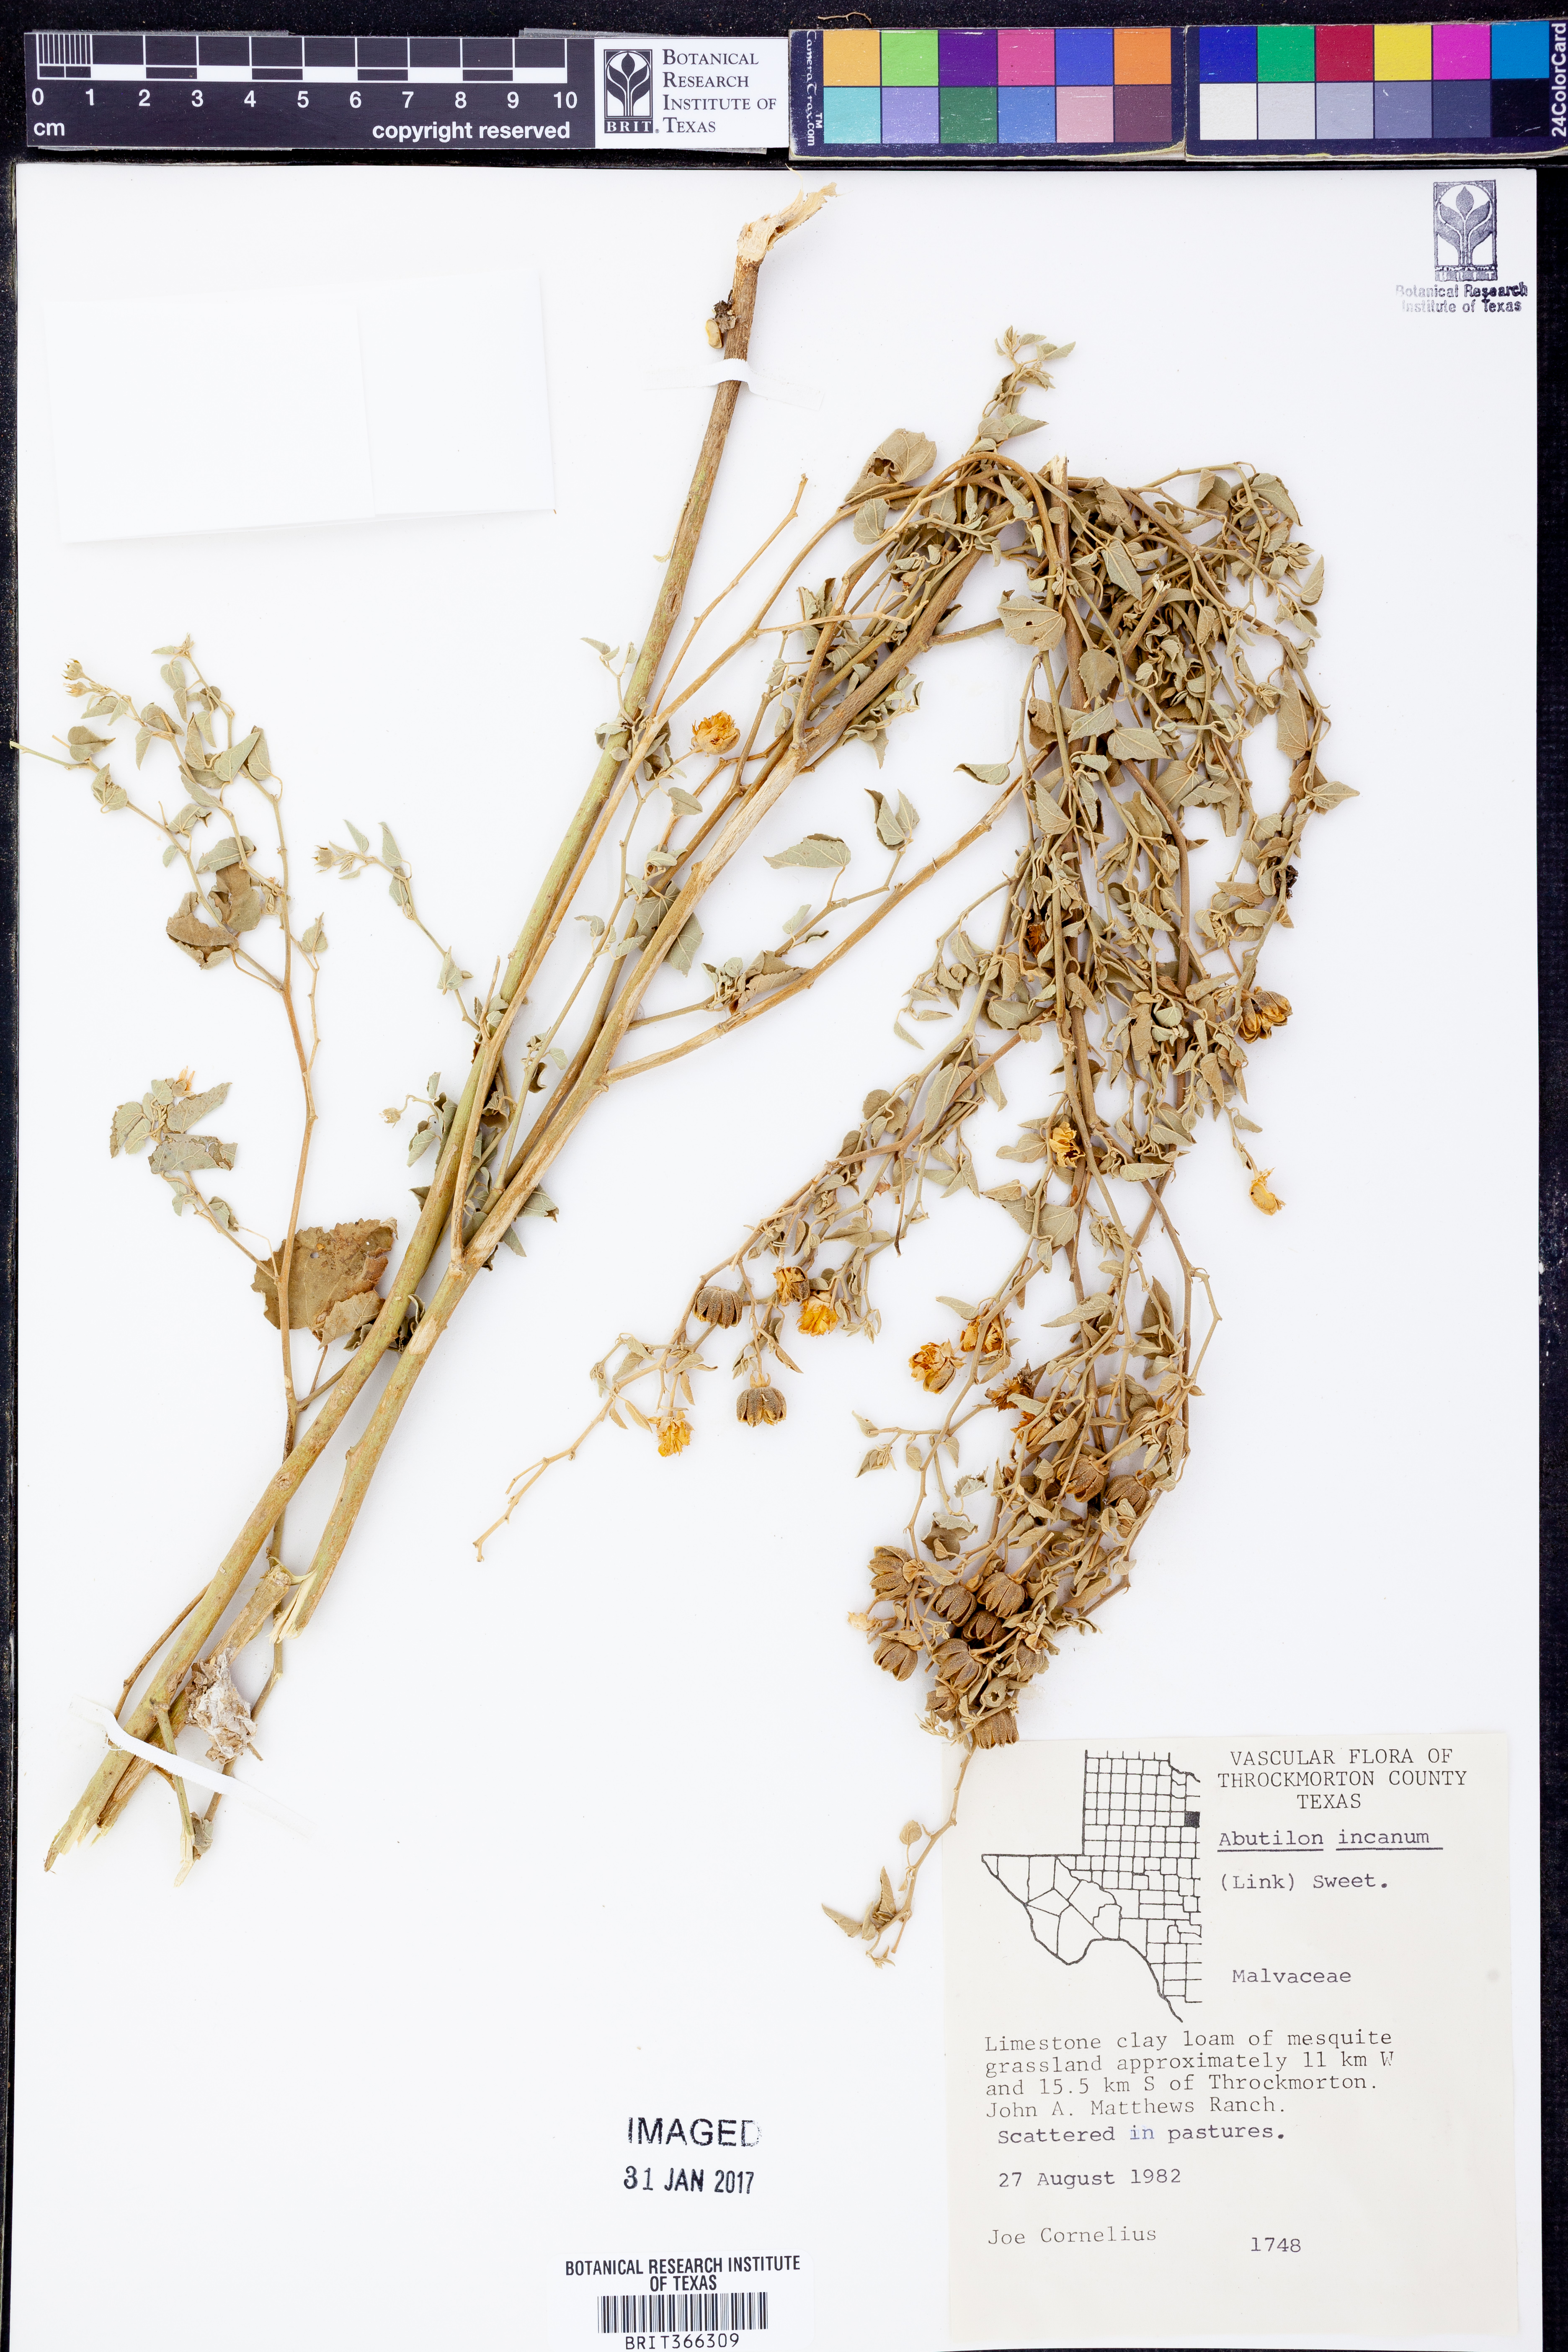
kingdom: Plantae
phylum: Tracheophyta
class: Magnoliopsida
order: Malvales
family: Malvaceae
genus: Abutilon
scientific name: Abutilon incanum
